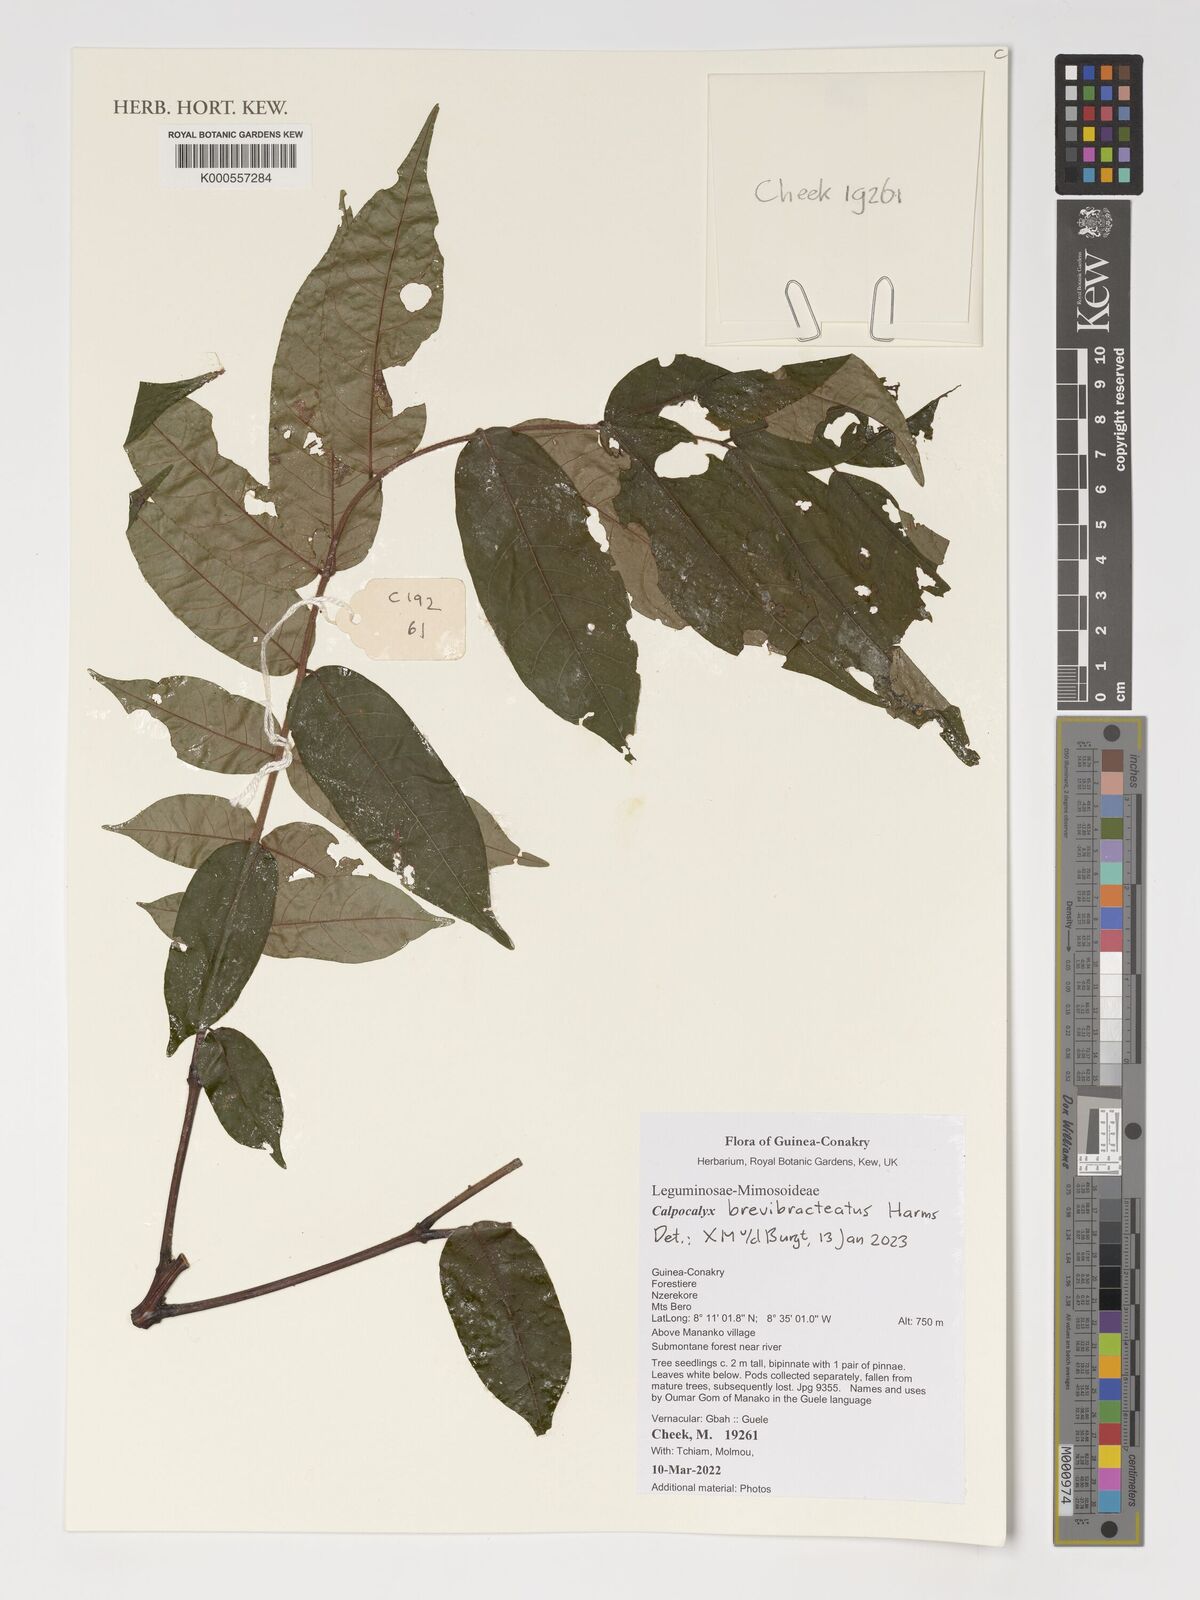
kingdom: Plantae
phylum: Tracheophyta
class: Magnoliopsida
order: Fabales
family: Fabaceae
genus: Calpocalyx
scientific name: Calpocalyx brevibracteatus
